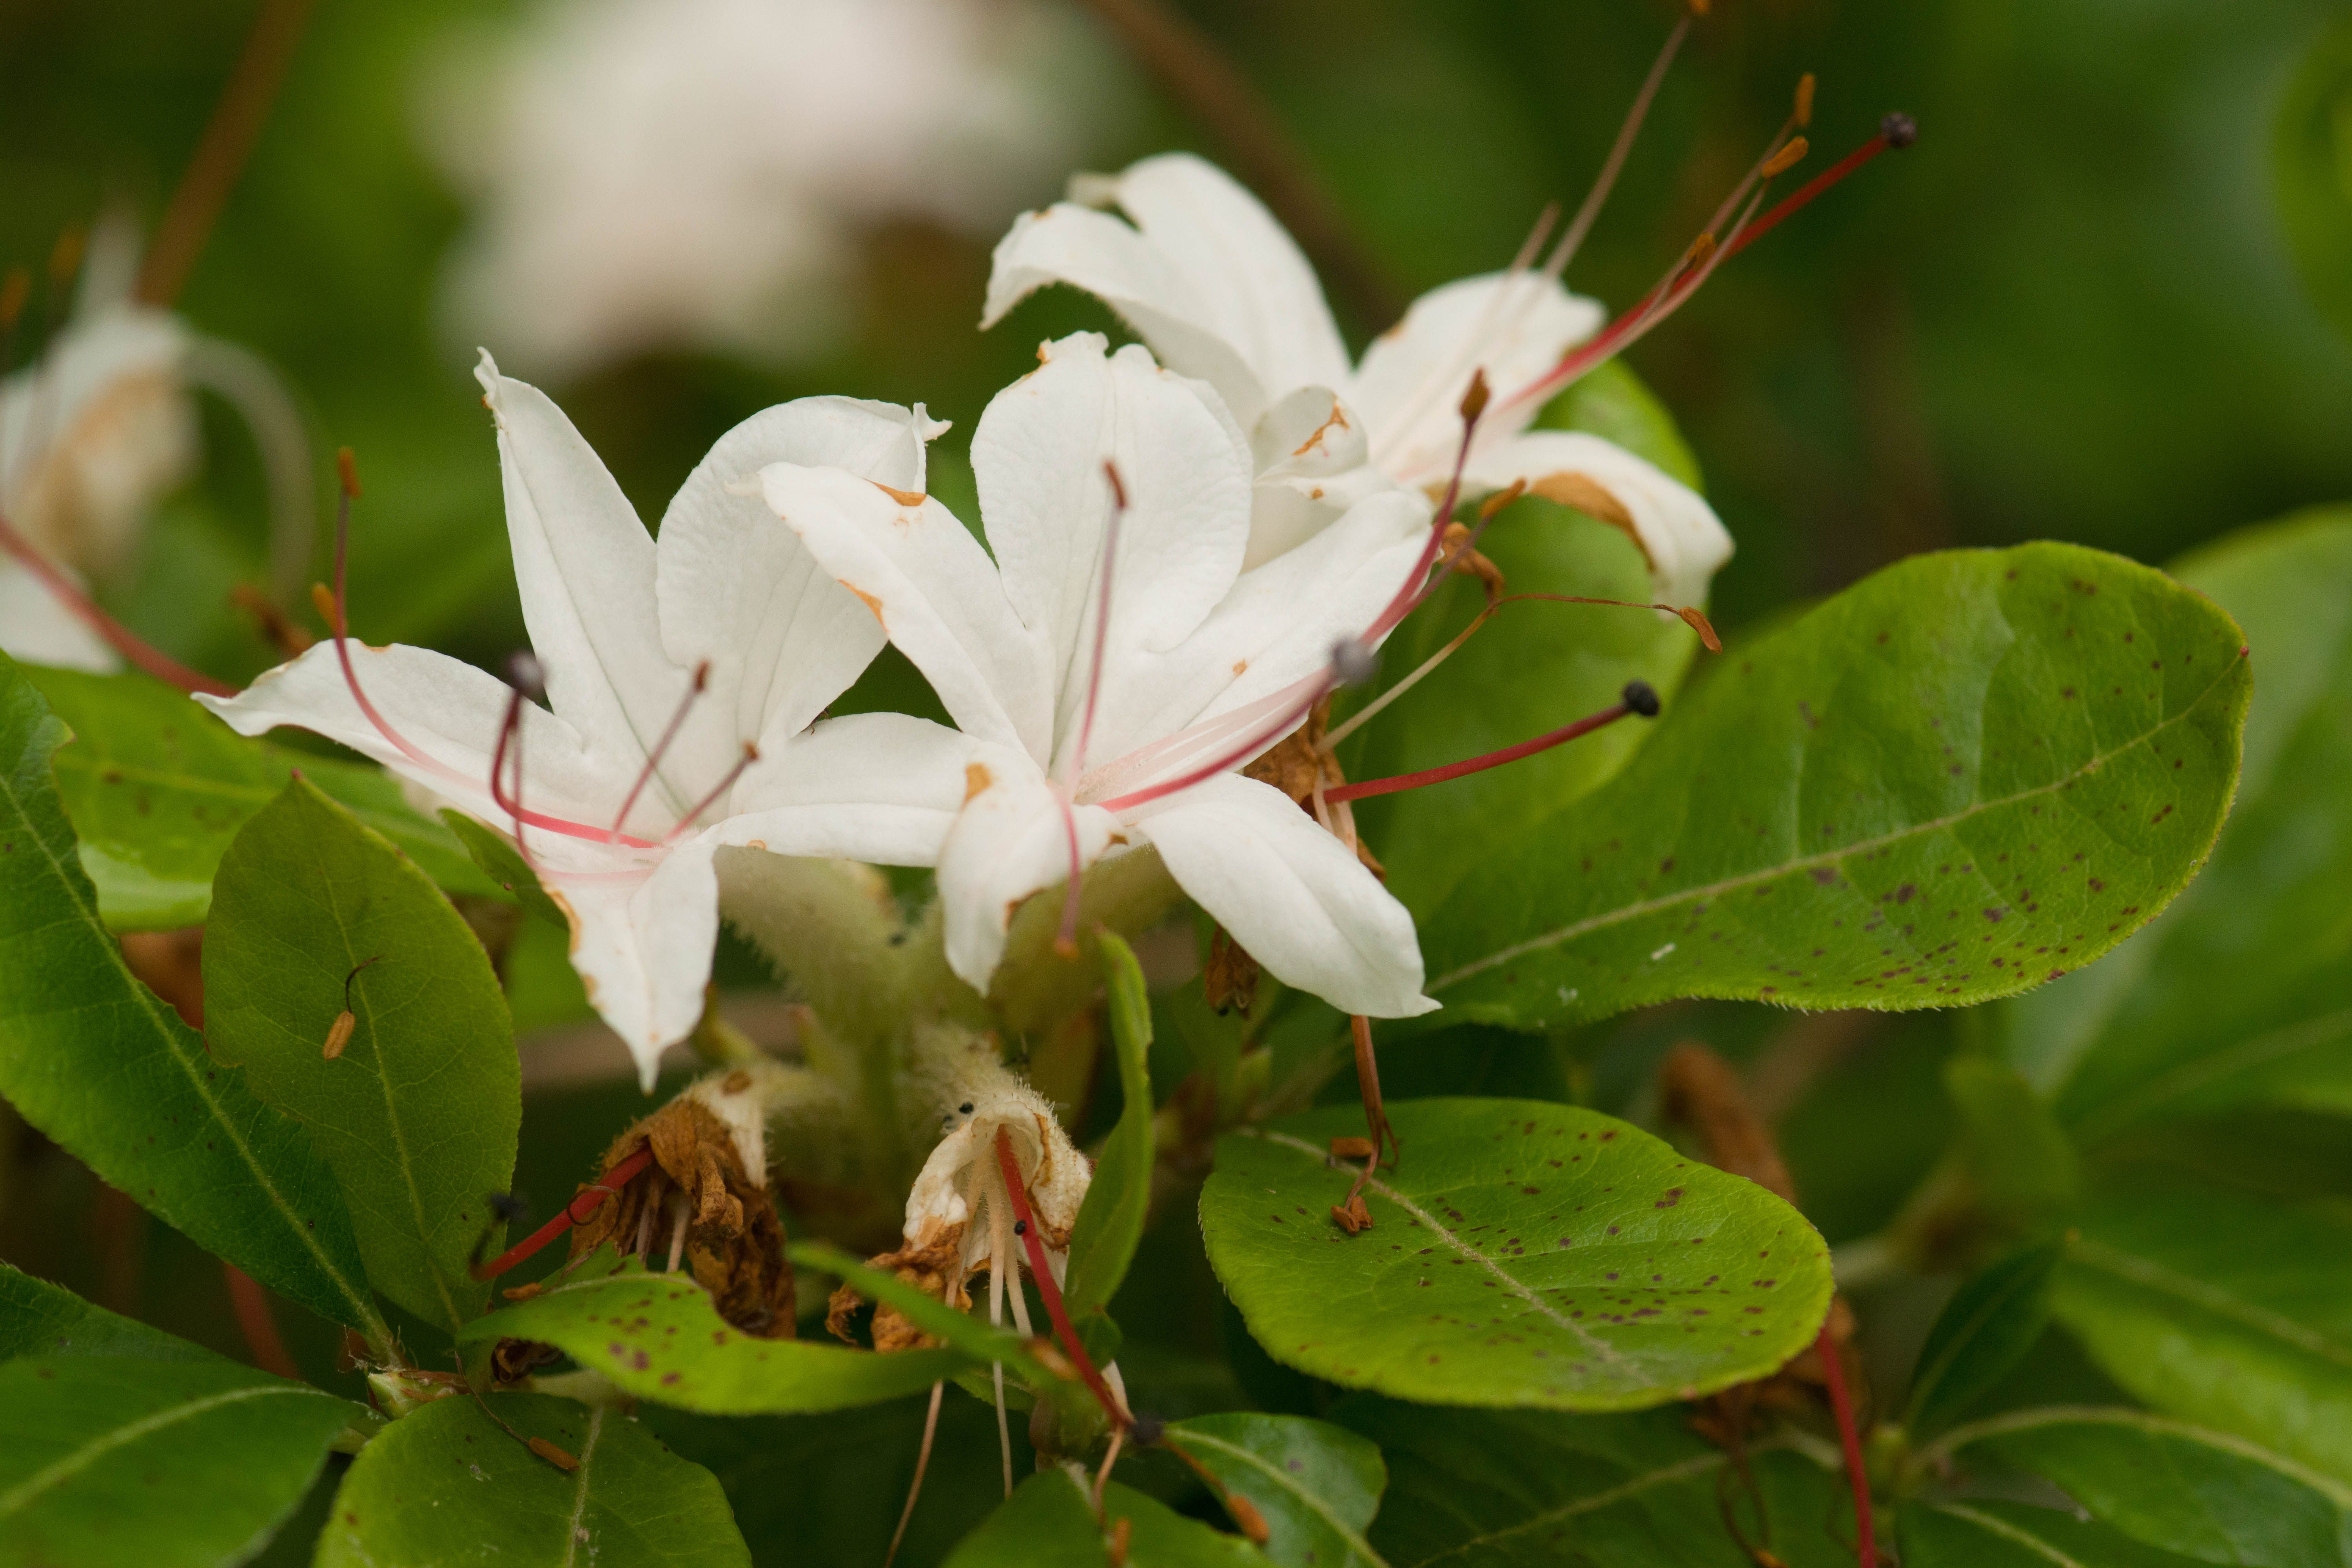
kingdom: Plantae
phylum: Tracheophyta
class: Magnoliopsida
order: Ericales
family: Ericaceae
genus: Rhododendron
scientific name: Rhododendron arborescens
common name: Sweet azalea
